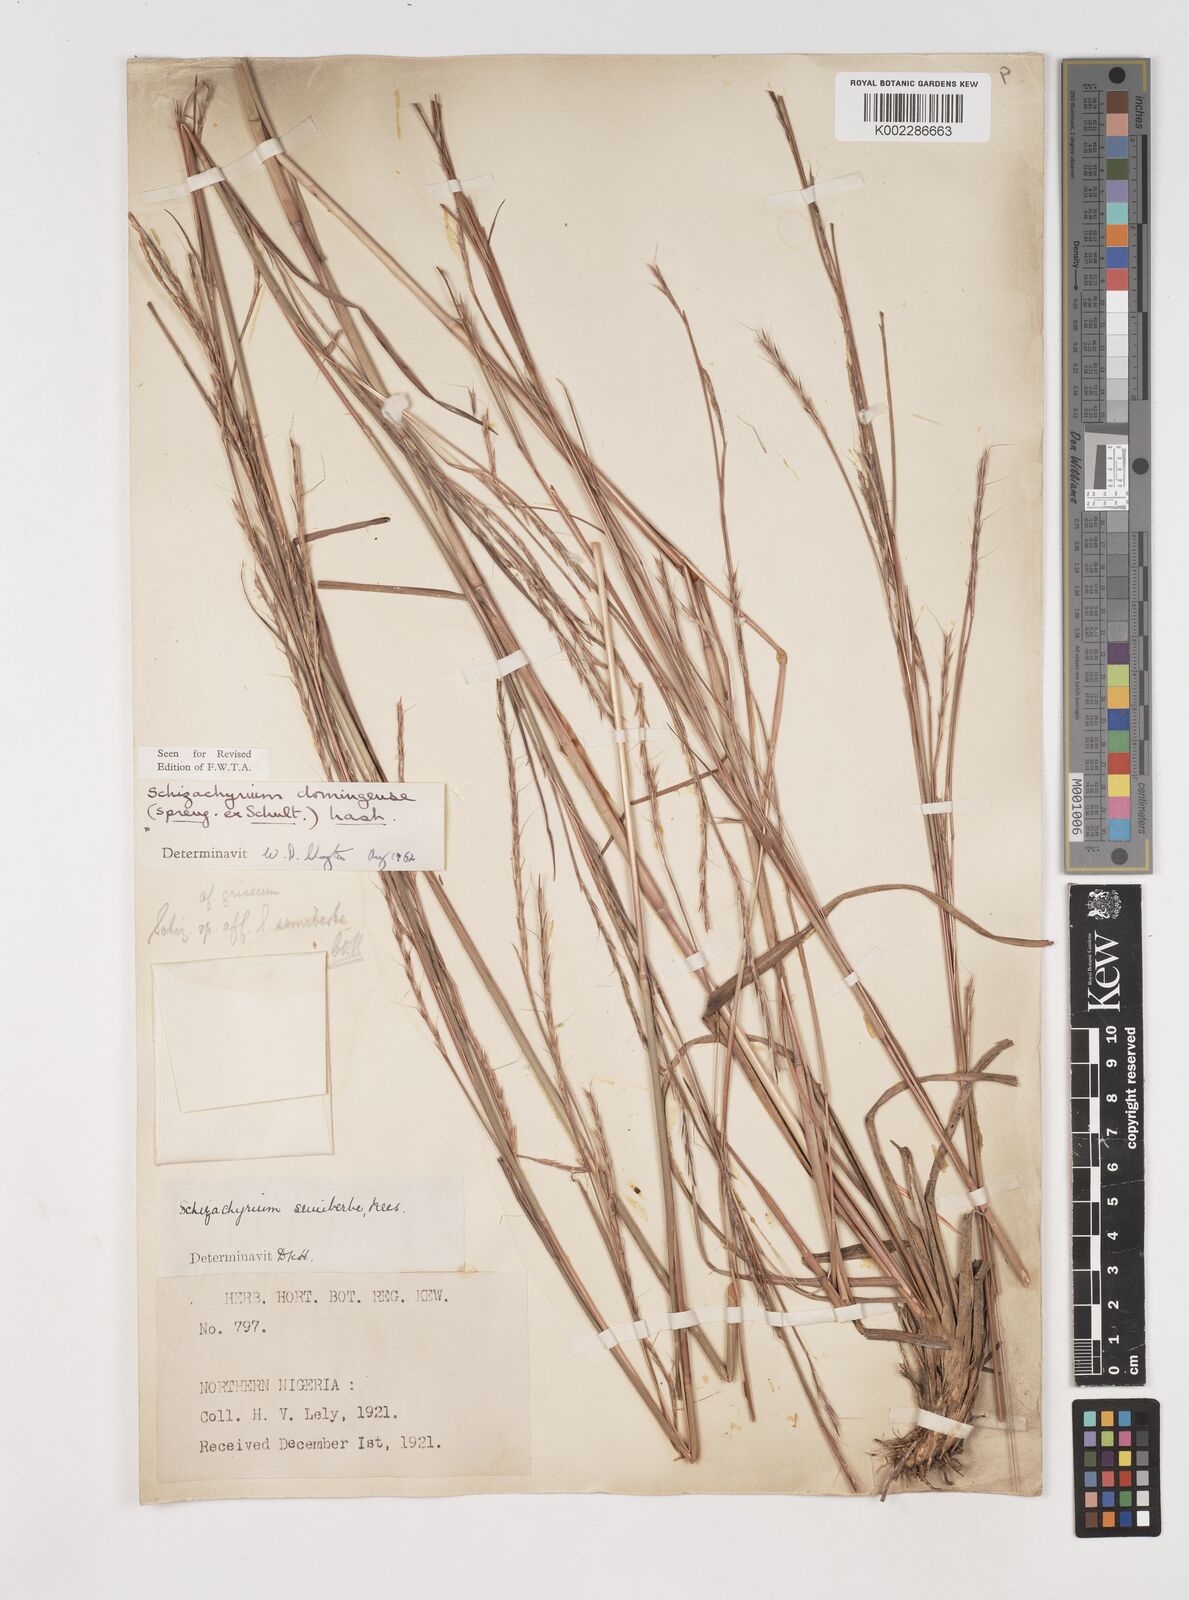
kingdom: Plantae
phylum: Tracheophyta
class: Liliopsida
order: Poales
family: Poaceae
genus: Schizachyrium
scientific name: Schizachyrium sanguineum
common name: Crimson bluestem
